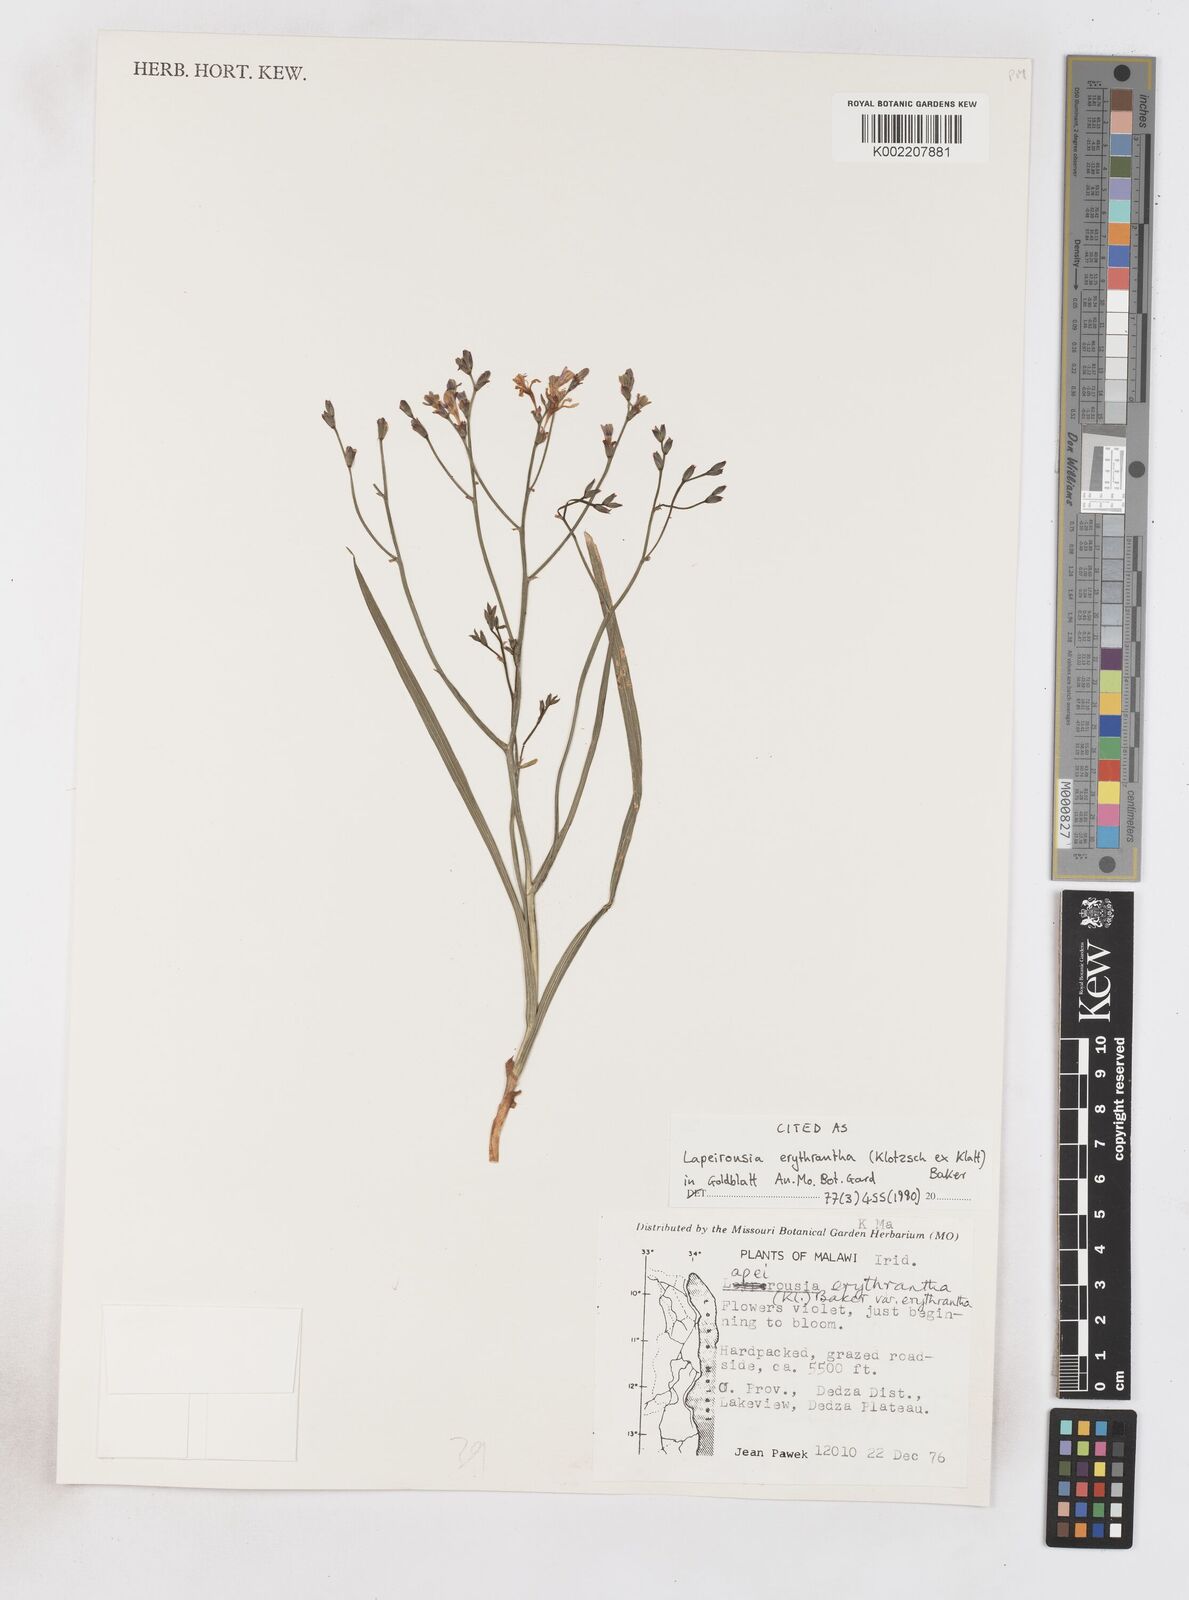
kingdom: Plantae
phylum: Tracheophyta
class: Liliopsida
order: Asparagales
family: Iridaceae
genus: Afrosolen
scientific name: Afrosolen erythranthus
